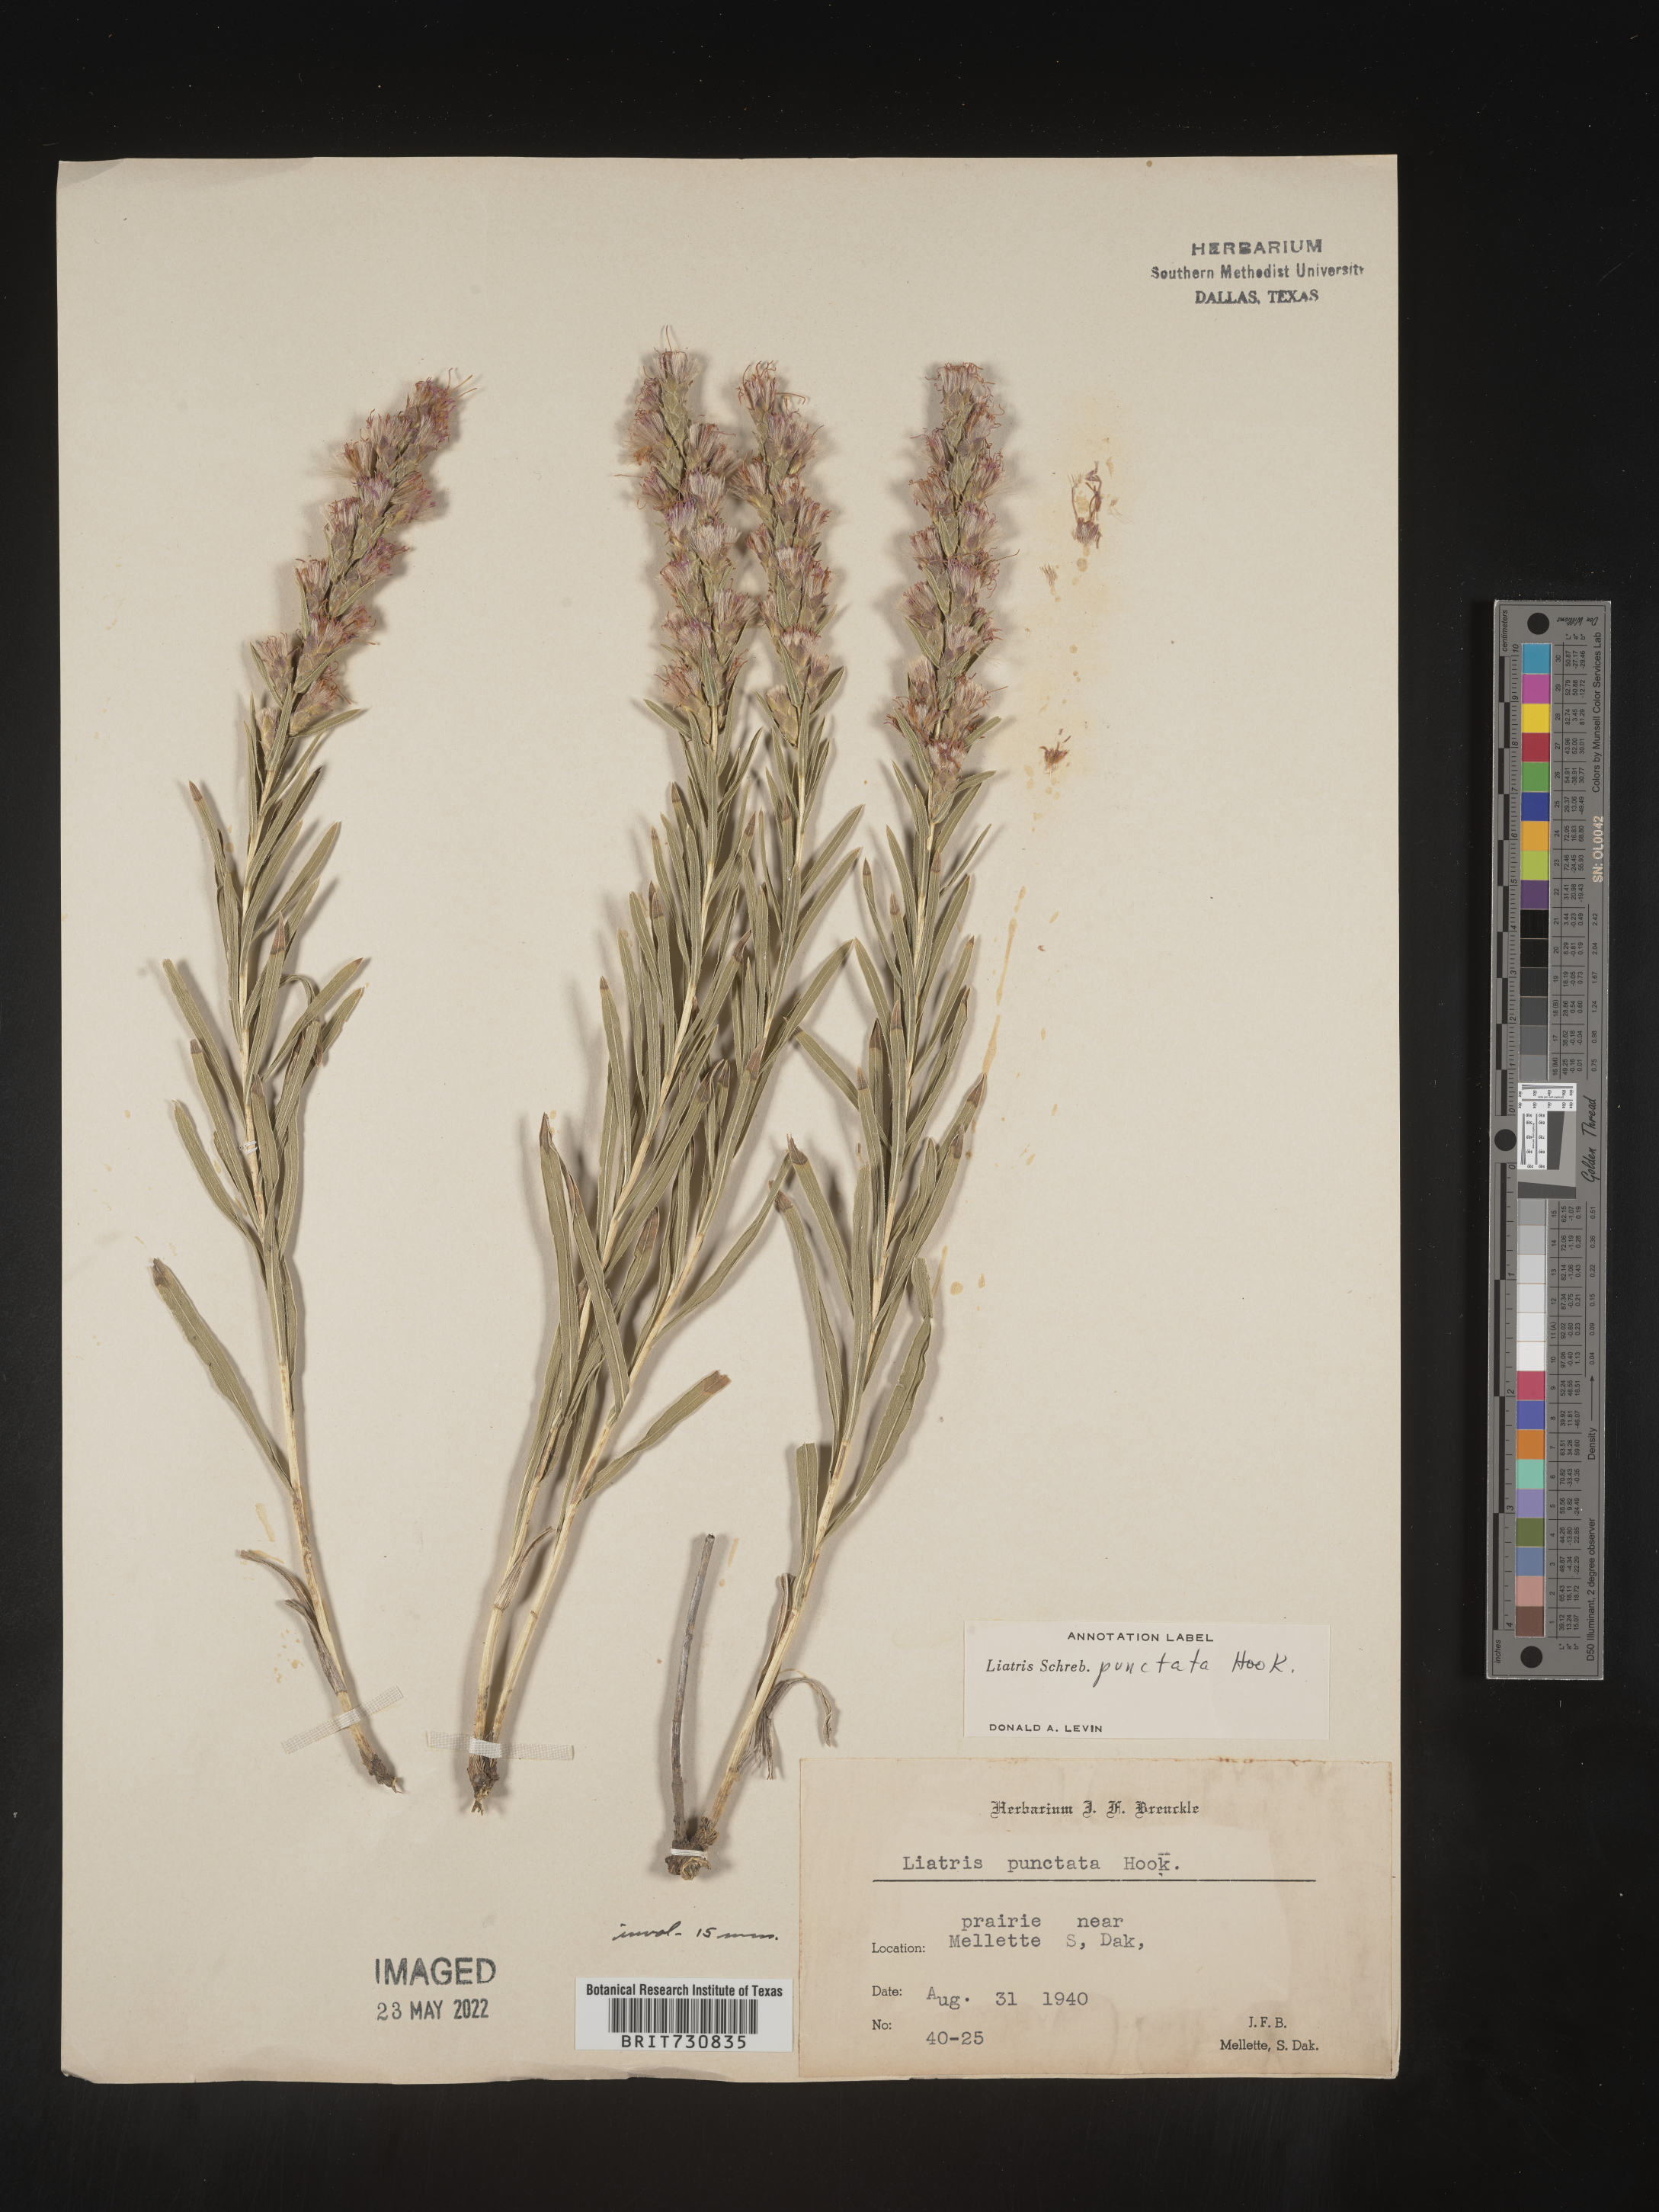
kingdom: Plantae
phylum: Tracheophyta
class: Magnoliopsida
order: Asterales
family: Asteraceae
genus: Liatris
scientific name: Liatris punctata
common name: Dotted gayfeather
